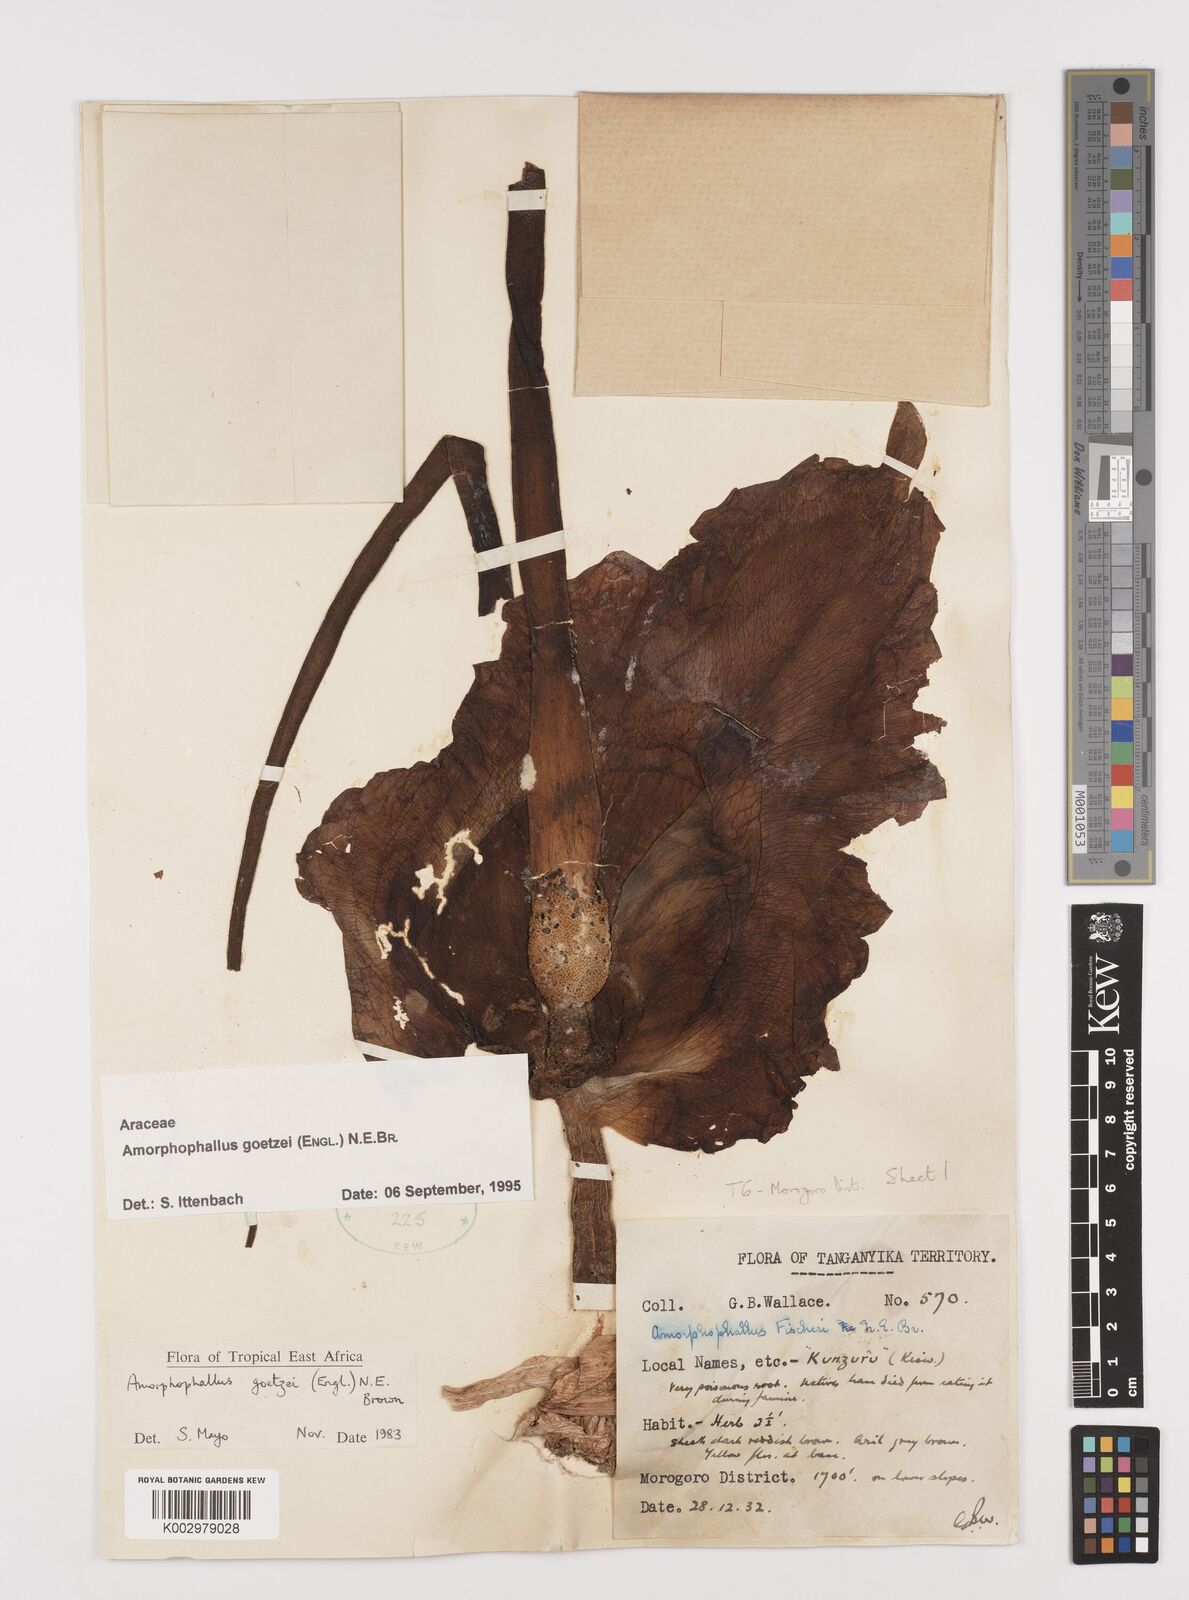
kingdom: Plantae
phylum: Tracheophyta
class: Liliopsida
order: Alismatales
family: Araceae
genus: Amorphophallus
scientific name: Amorphophallus goetzei
